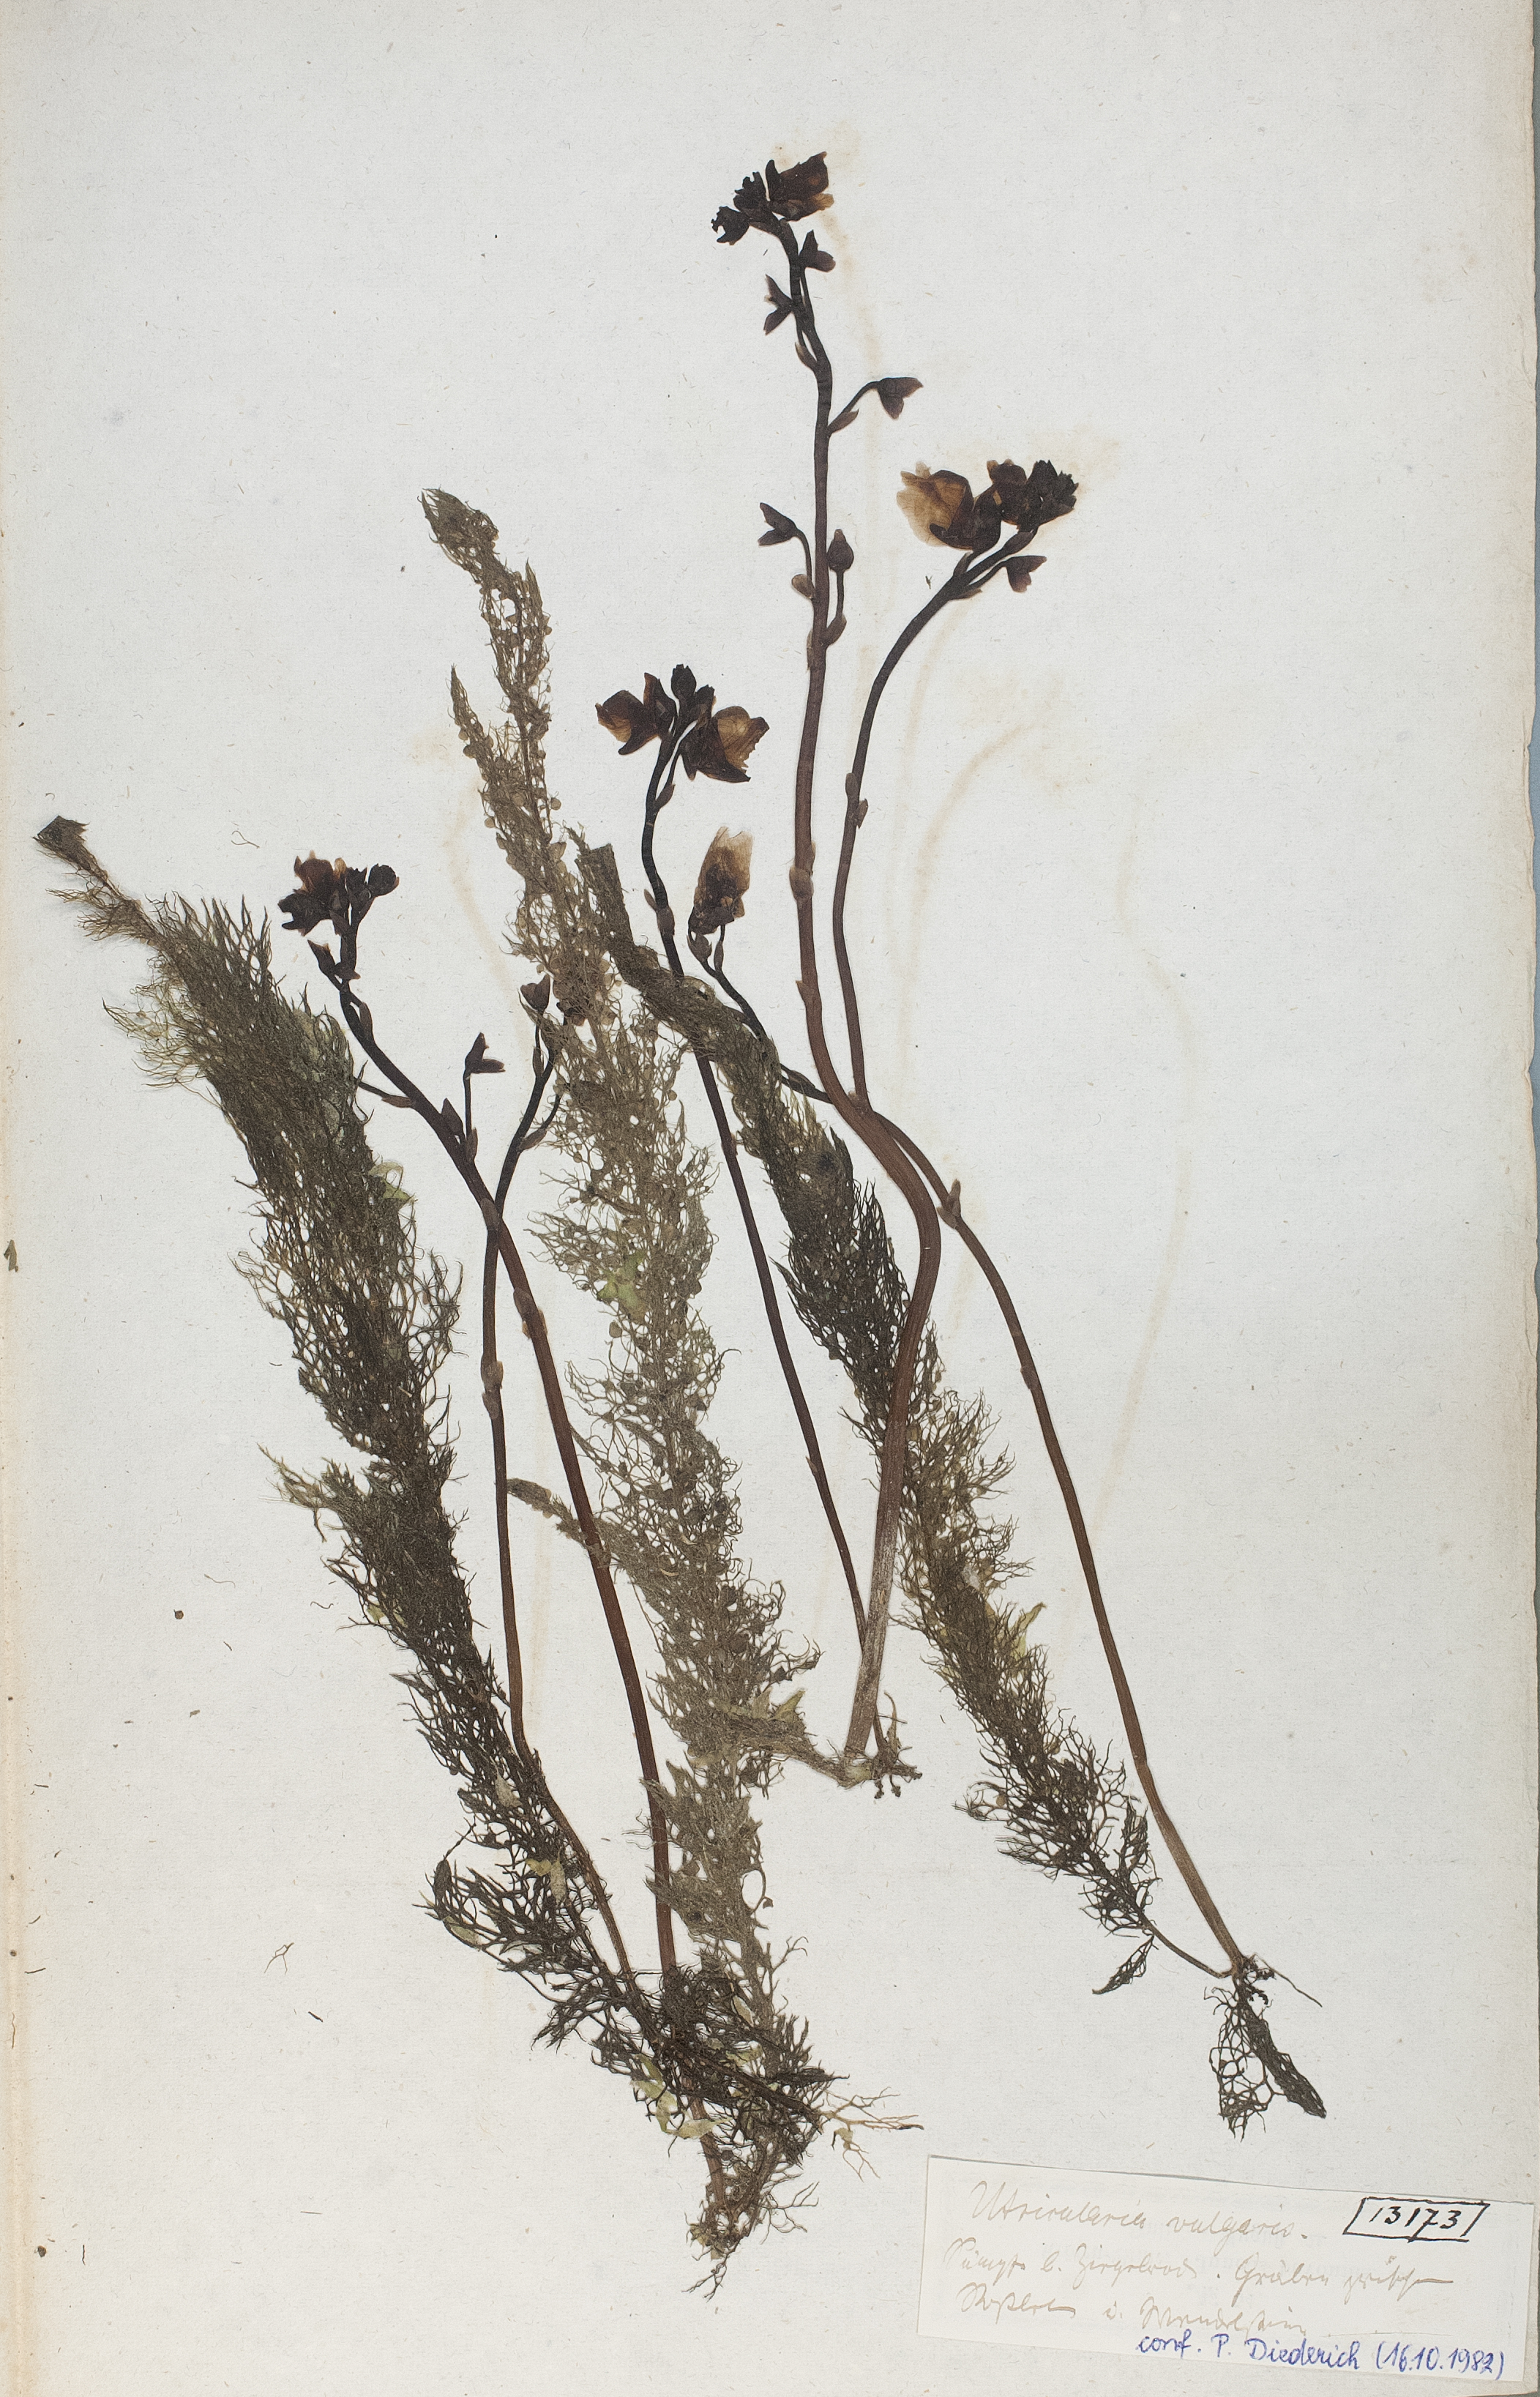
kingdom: Plantae
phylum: Tracheophyta
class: Magnoliopsida
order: Lamiales
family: Lentibulariaceae
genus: Utricularia
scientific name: Utricularia vulgaris
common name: Greater bladderwort
